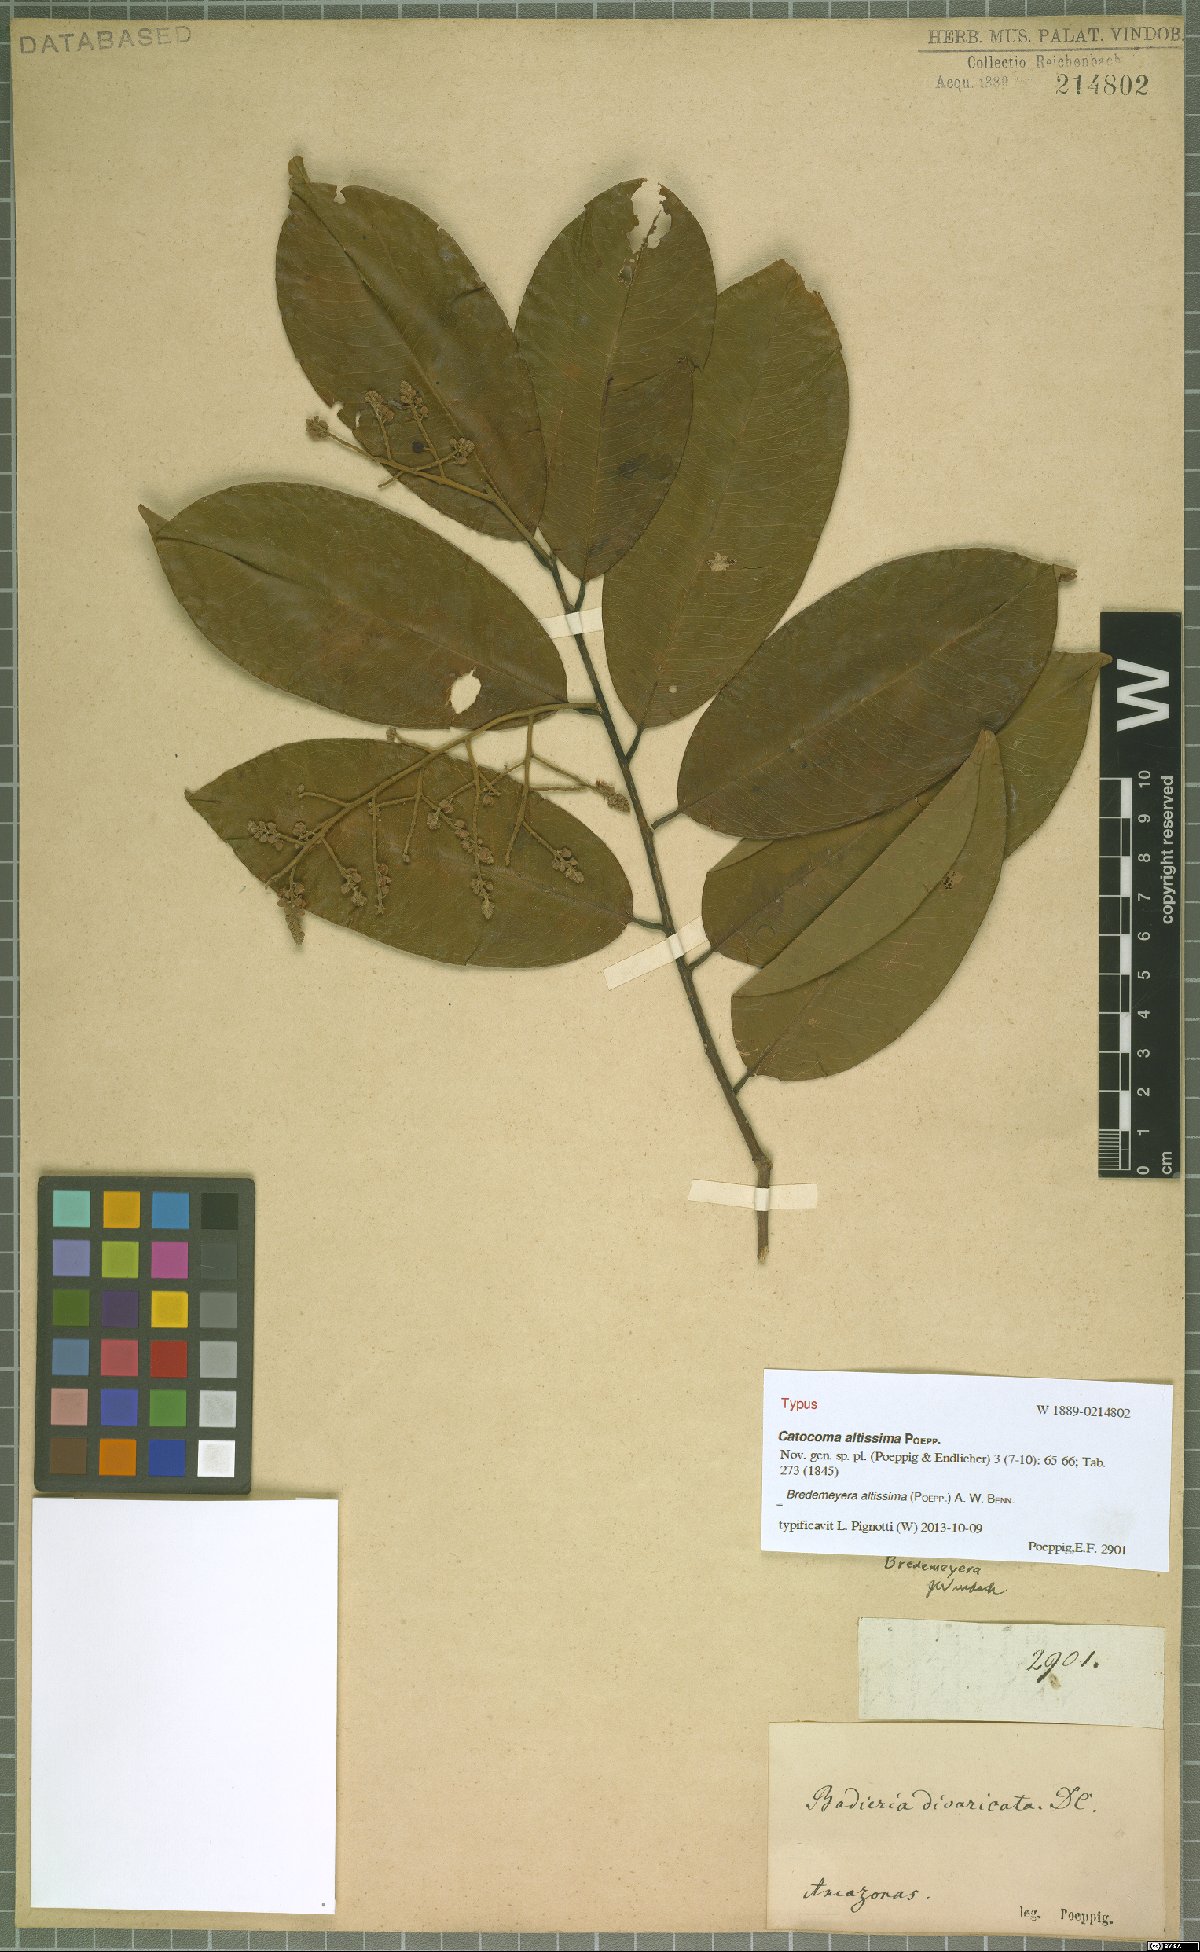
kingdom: Plantae
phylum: Tracheophyta
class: Magnoliopsida
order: Fabales
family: Polygalaceae
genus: Bredemeyera
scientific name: Bredemeyera divaricata
